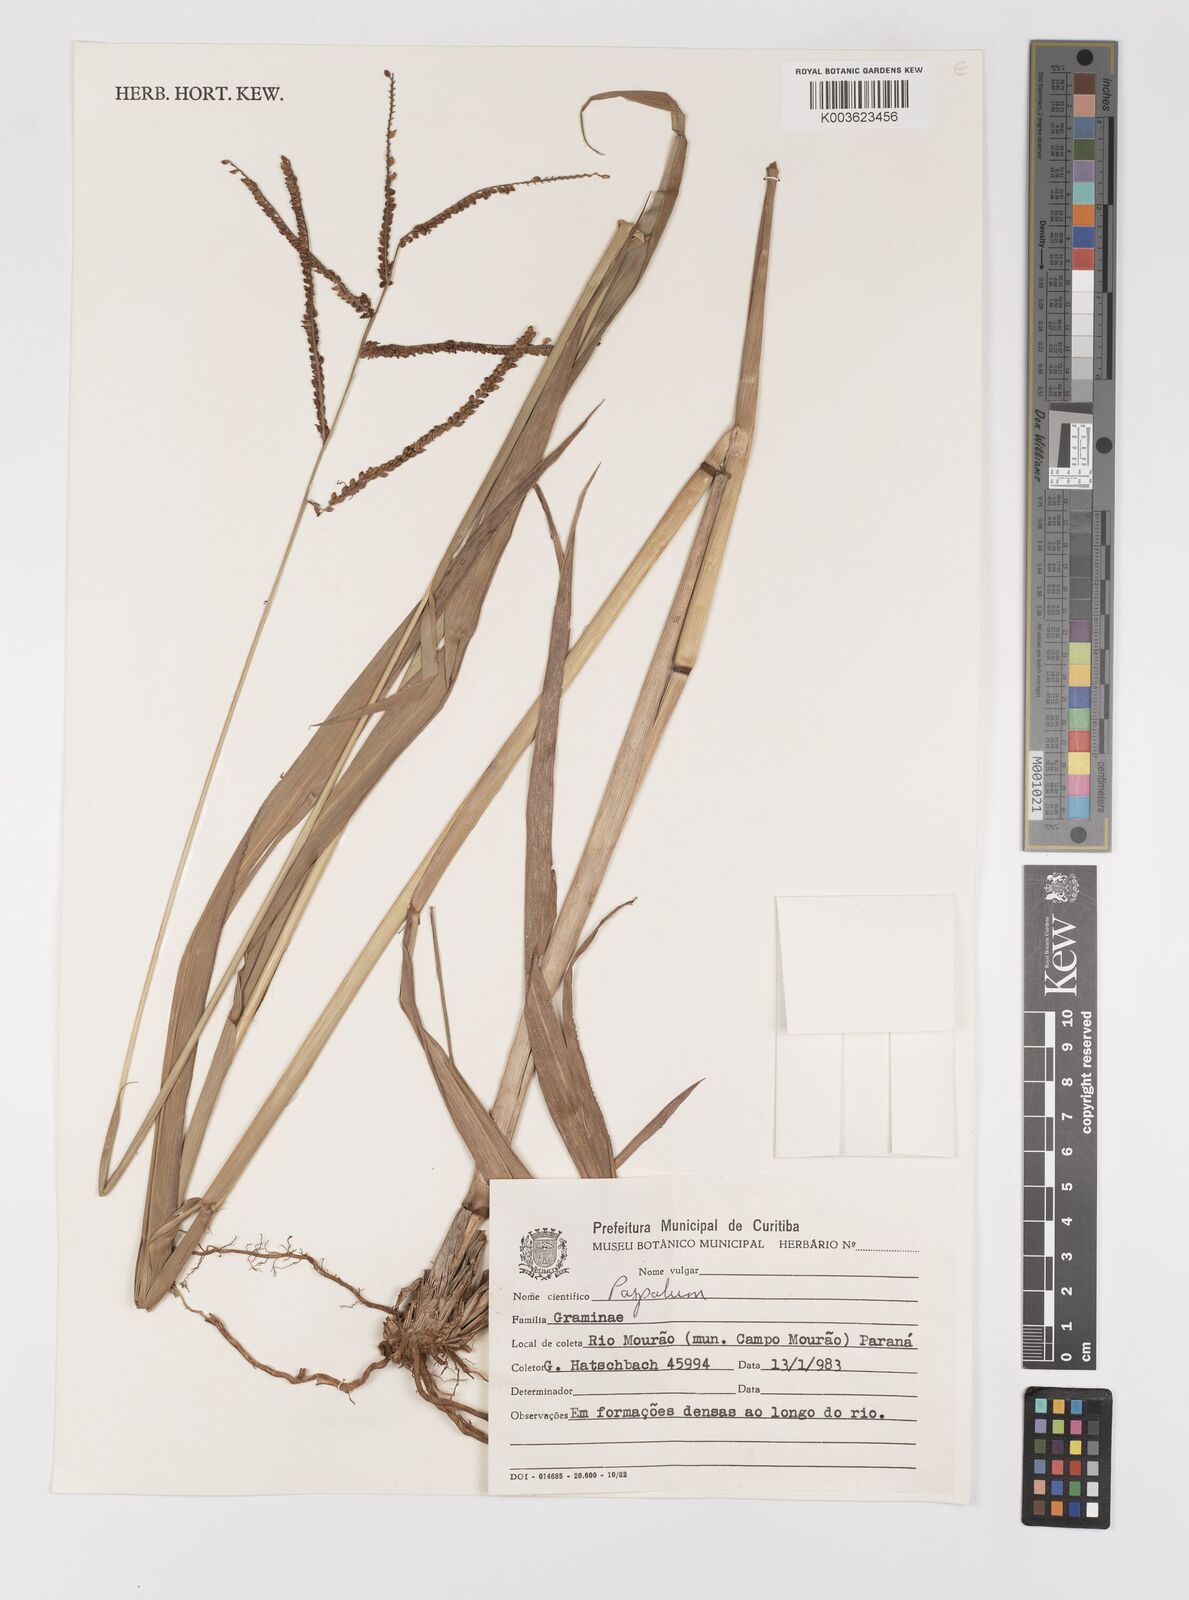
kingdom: Plantae
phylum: Tracheophyta
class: Liliopsida
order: Poales
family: Poaceae
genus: Paspalum
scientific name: Paspalum conspersum
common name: Scattered paspalum
